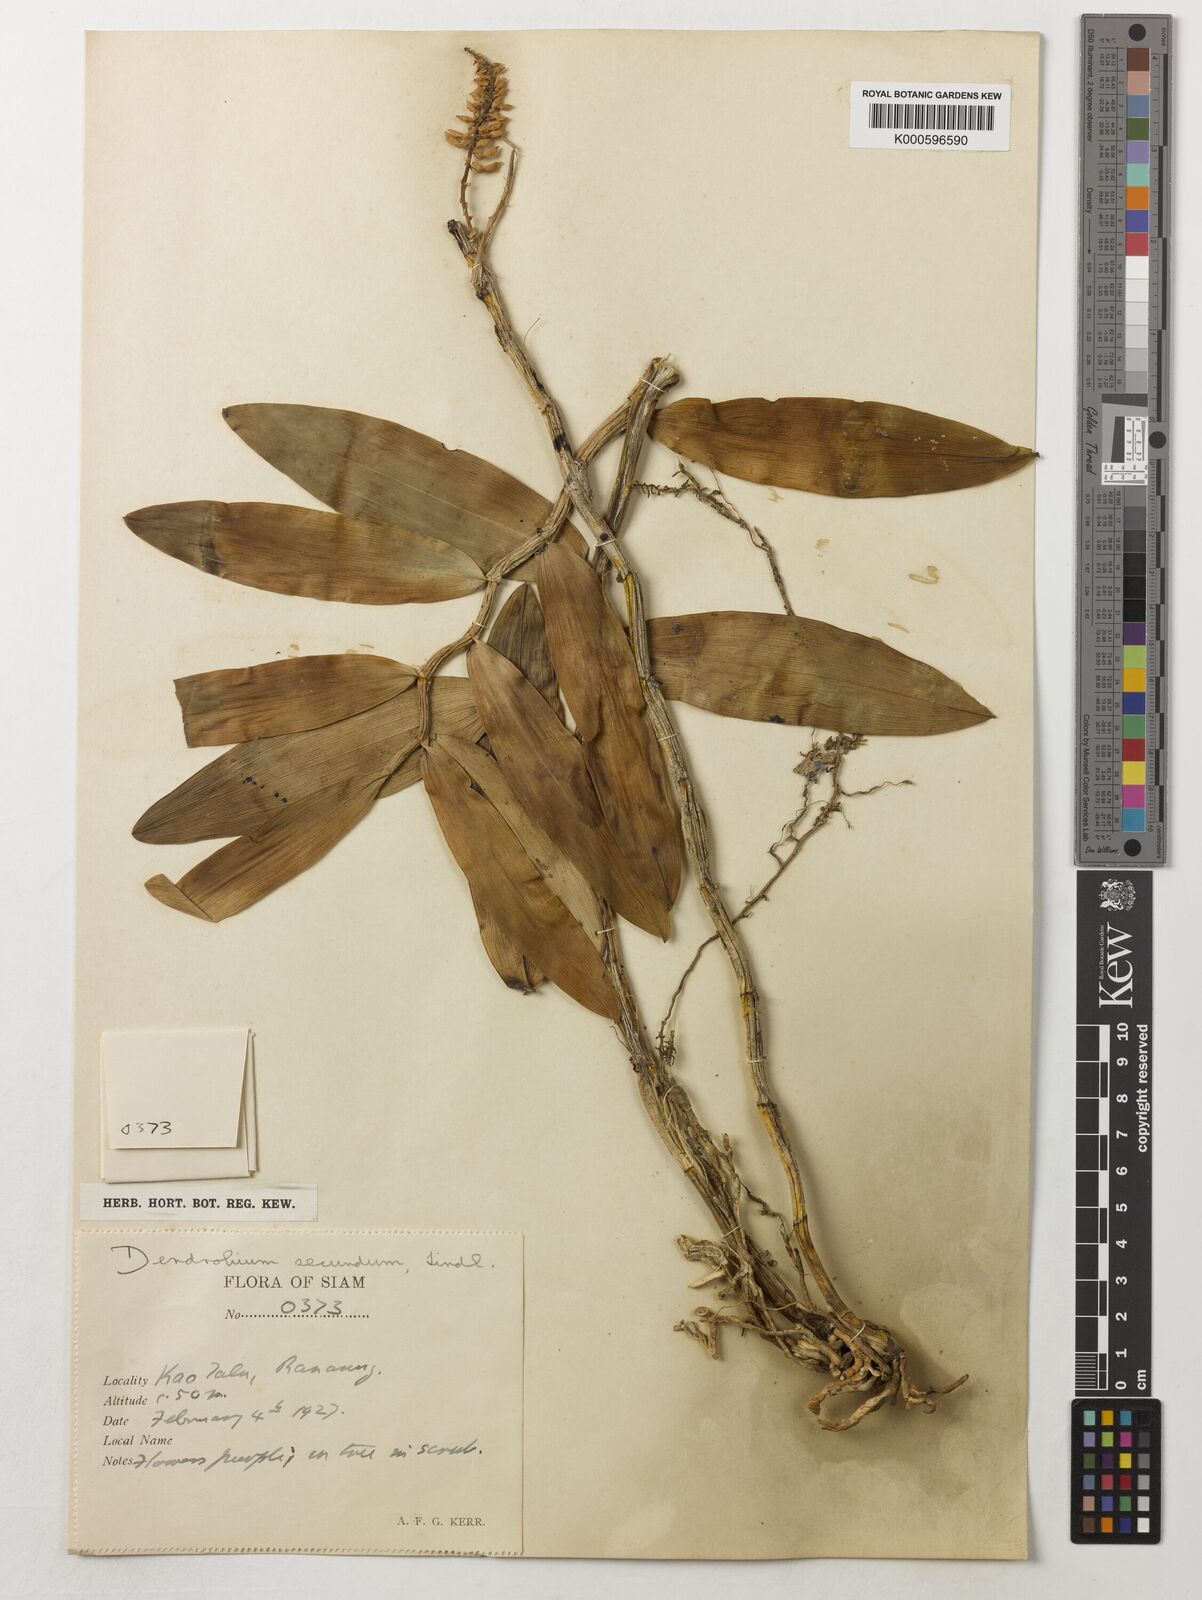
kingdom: Plantae
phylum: Tracheophyta
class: Liliopsida
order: Asparagales
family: Orchidaceae
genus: Dendrobium
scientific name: Dendrobium
